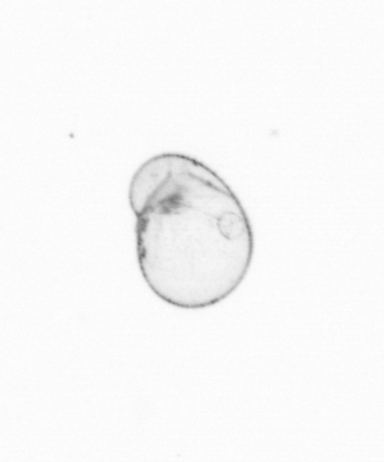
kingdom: Chromista
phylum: Myzozoa
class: Dinophyceae
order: Noctilucales
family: Noctilucaceae
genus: Noctiluca
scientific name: Noctiluca scintillans
